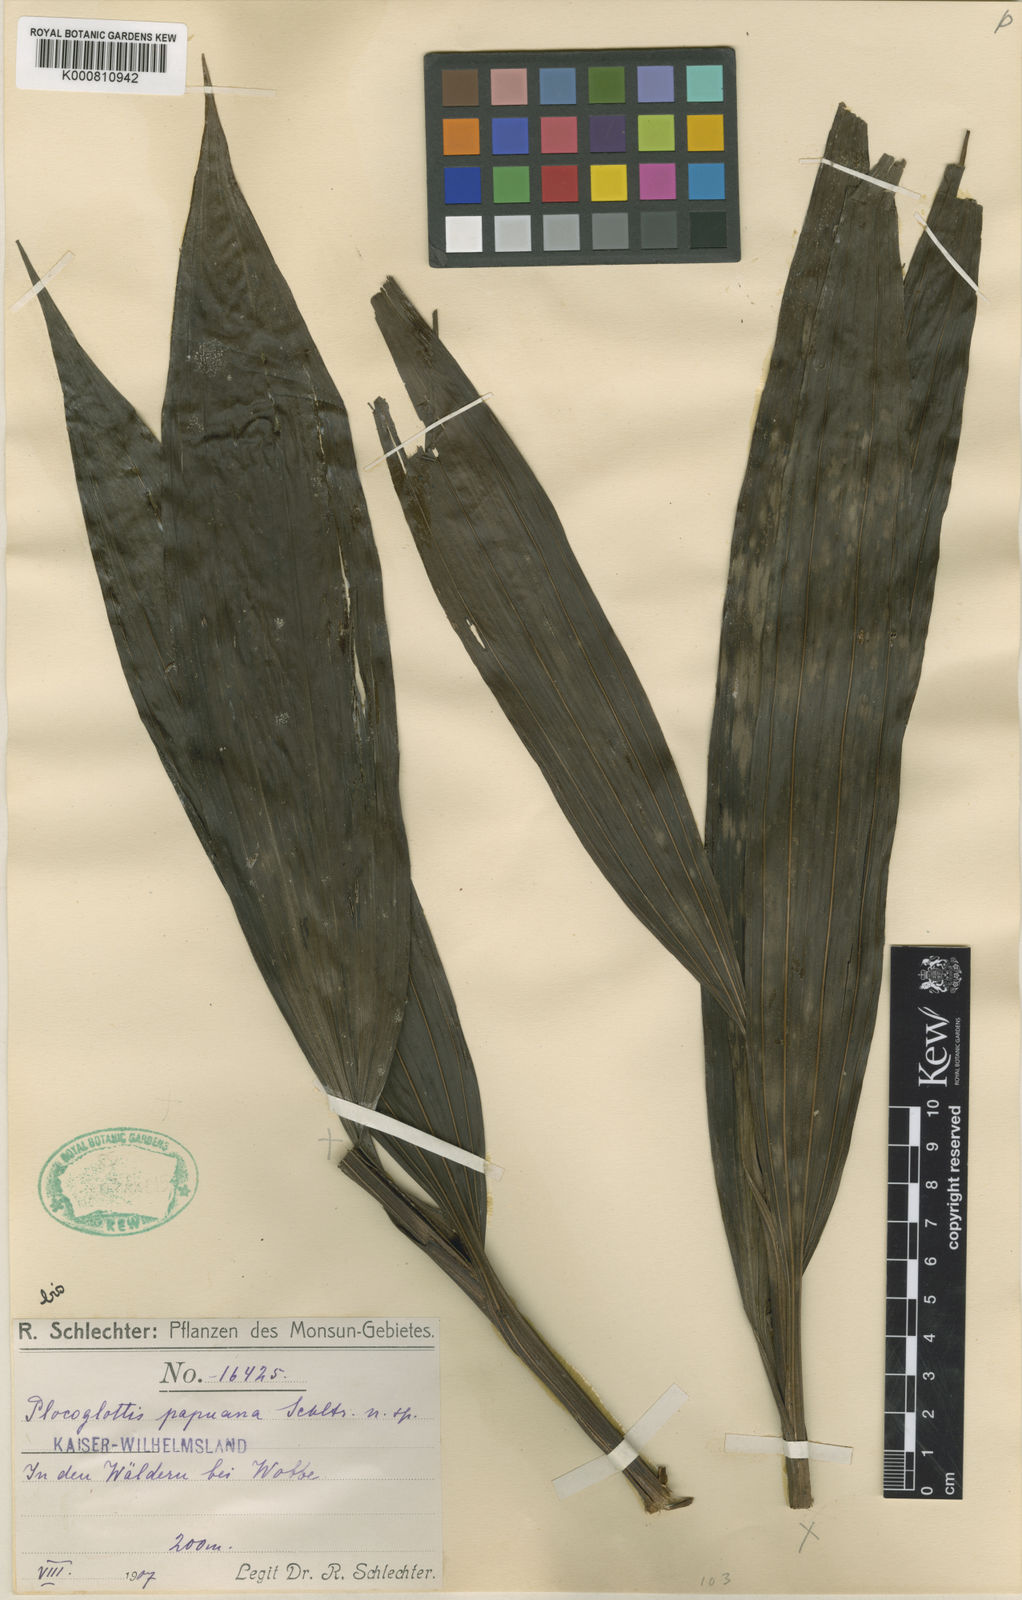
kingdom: Plantae
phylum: Tracheophyta
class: Liliopsida
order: Asparagales
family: Orchidaceae
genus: Plocoglottis
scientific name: Plocoglottis kaniensis
